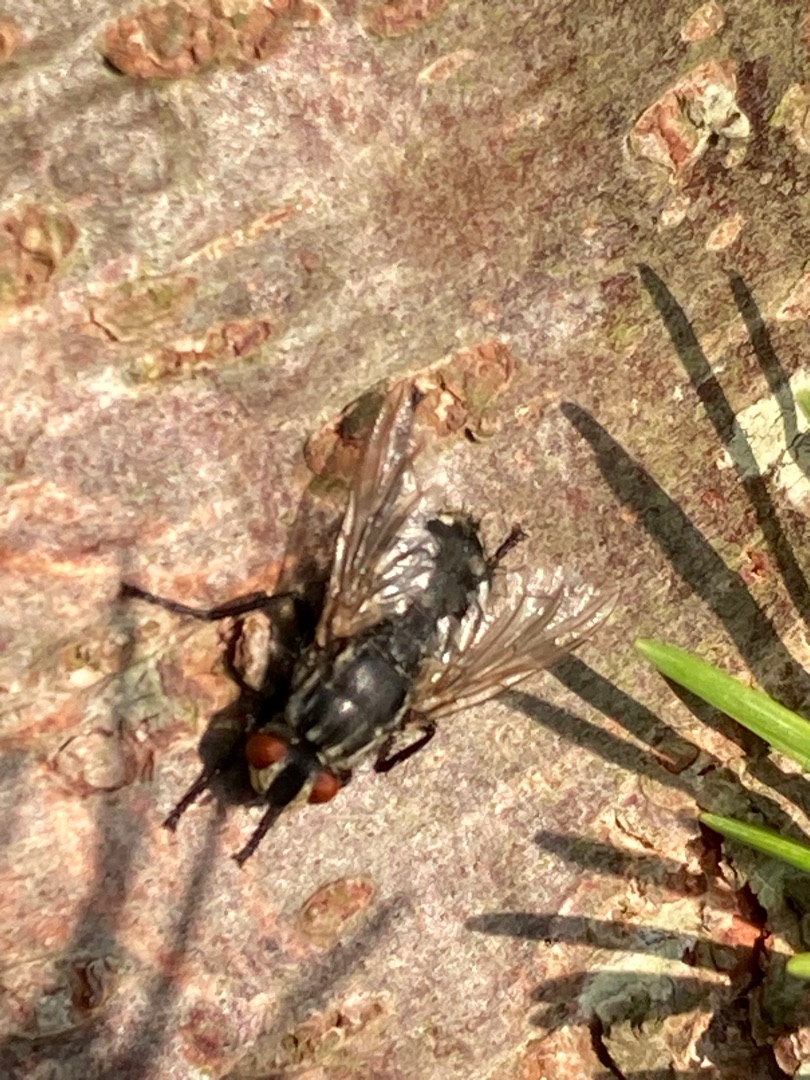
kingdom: Animalia
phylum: Arthropoda
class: Insecta
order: Diptera
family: Sarcophagidae
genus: Sarcophaga
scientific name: Sarcophaga
